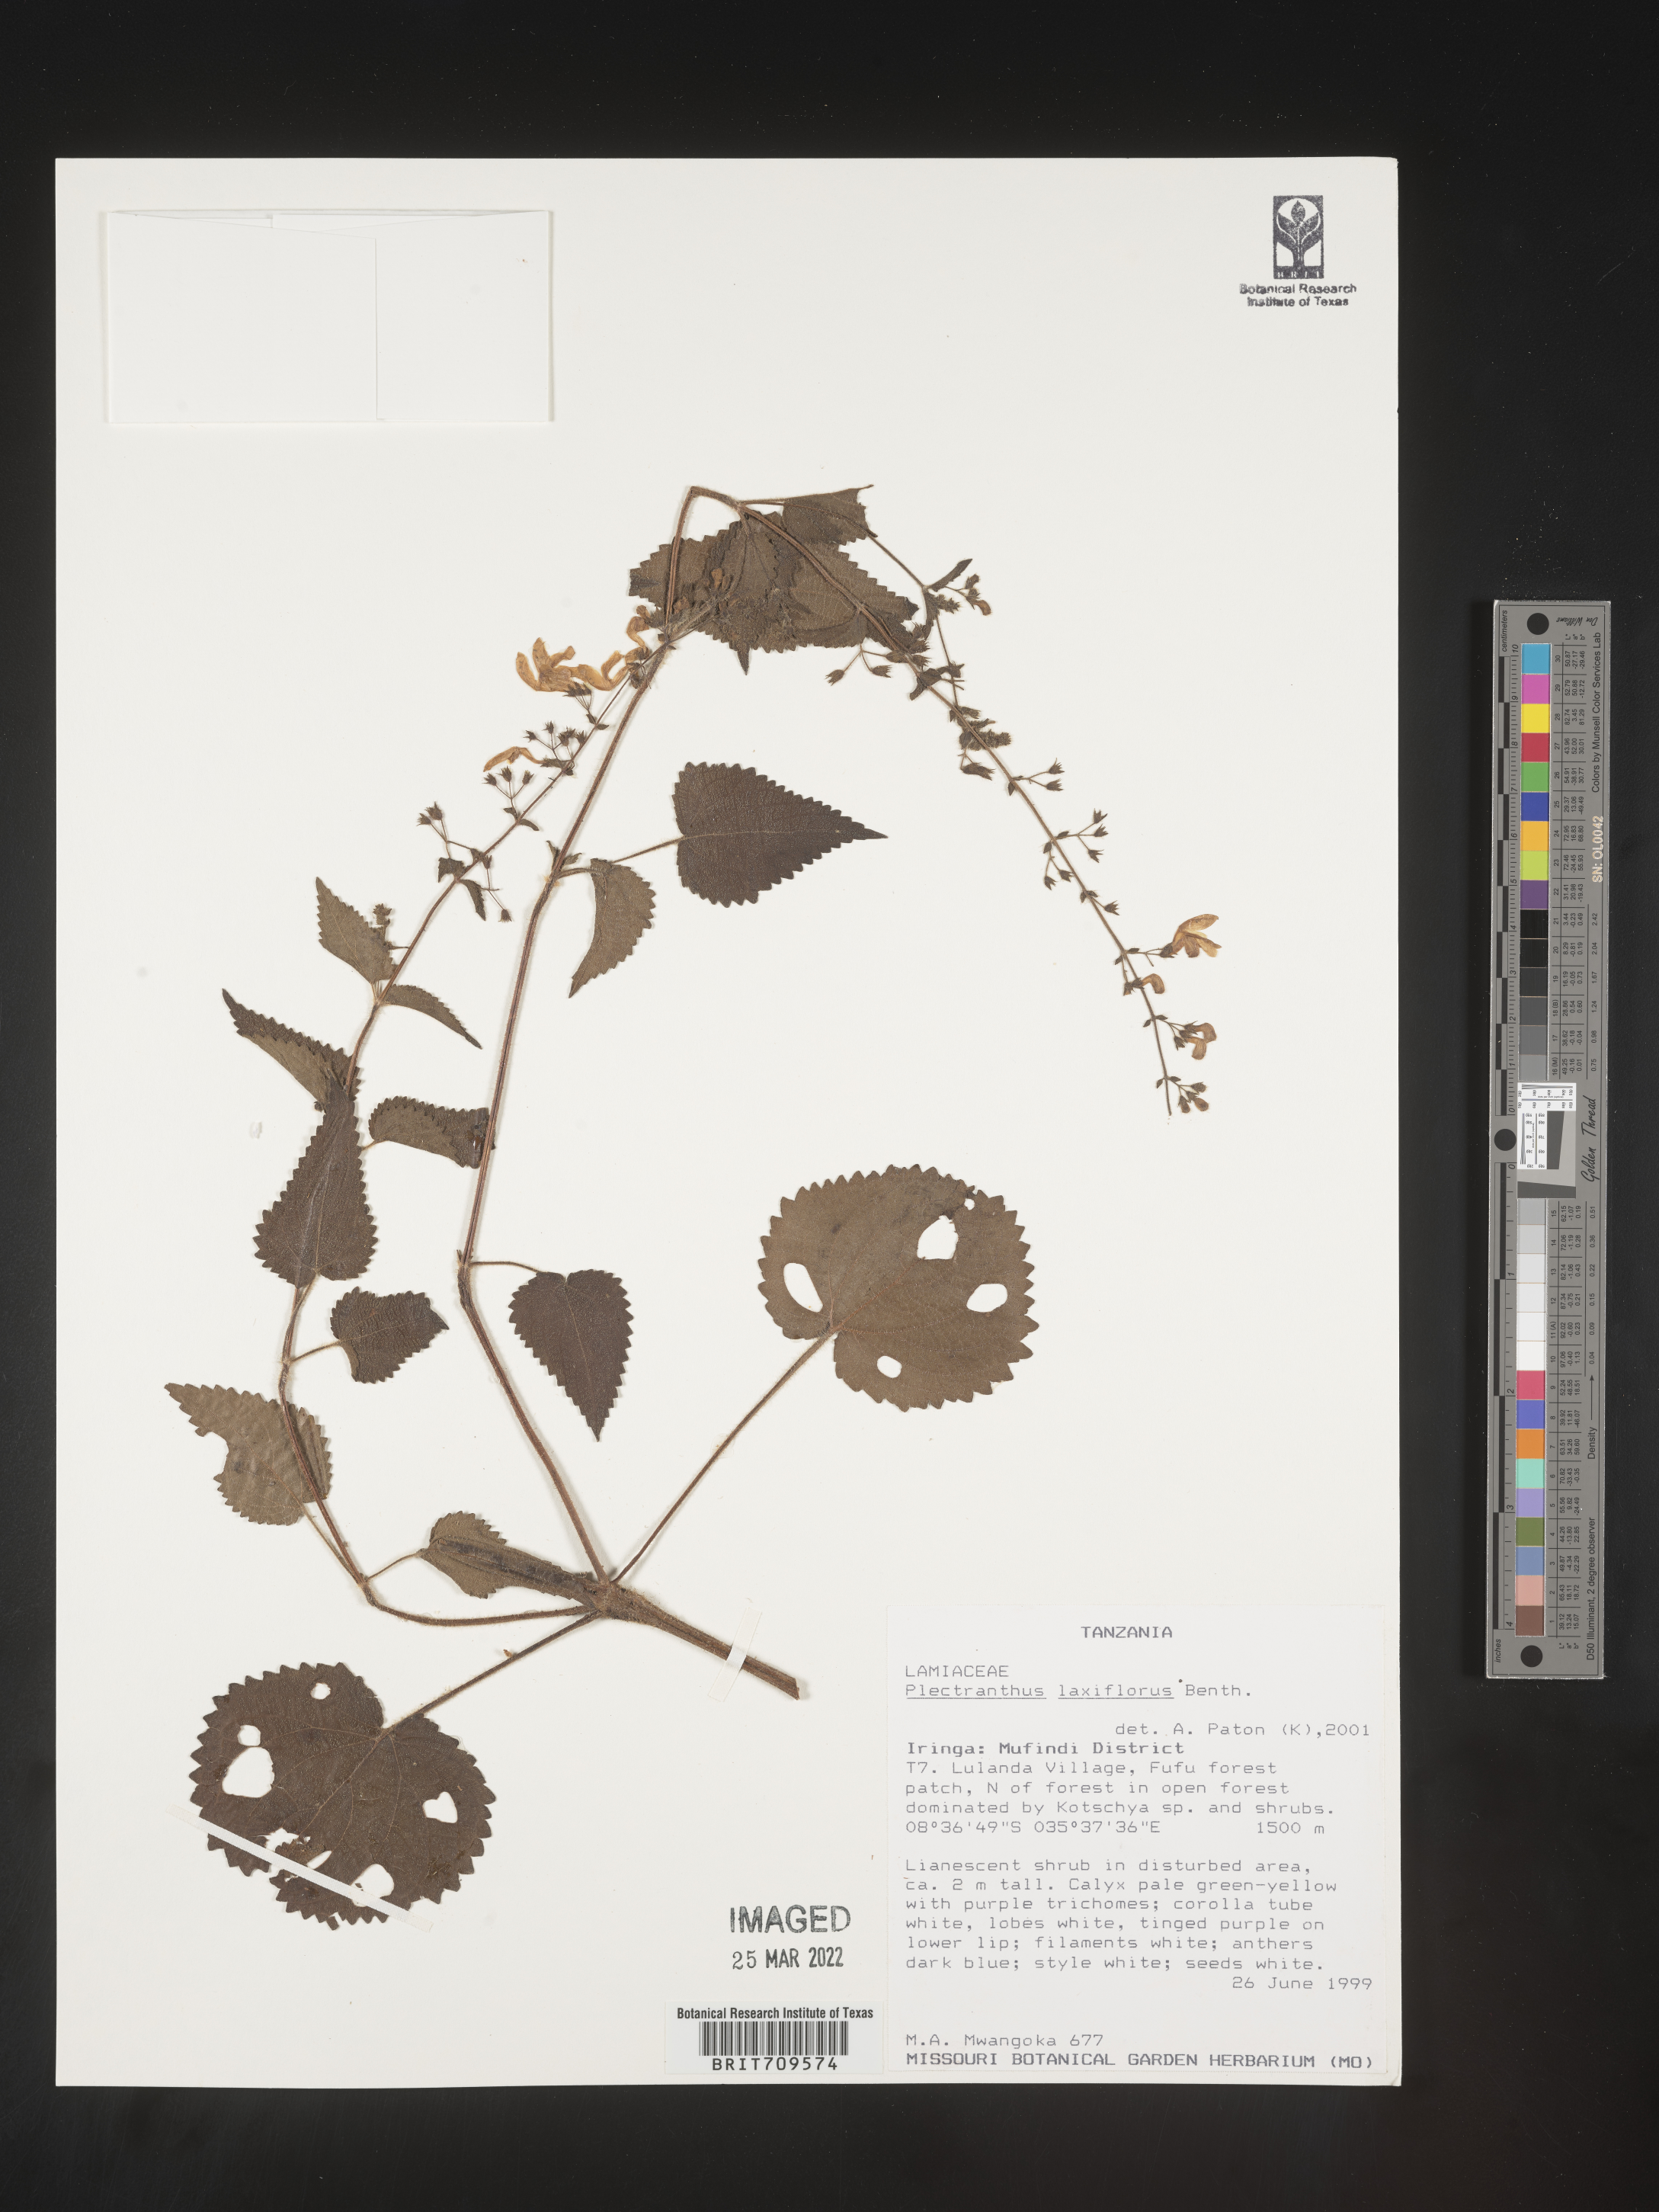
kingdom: Plantae
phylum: Tracheophyta
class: Magnoliopsida
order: Lamiales
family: Lamiaceae
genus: Plectranthus
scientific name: Plectranthus
